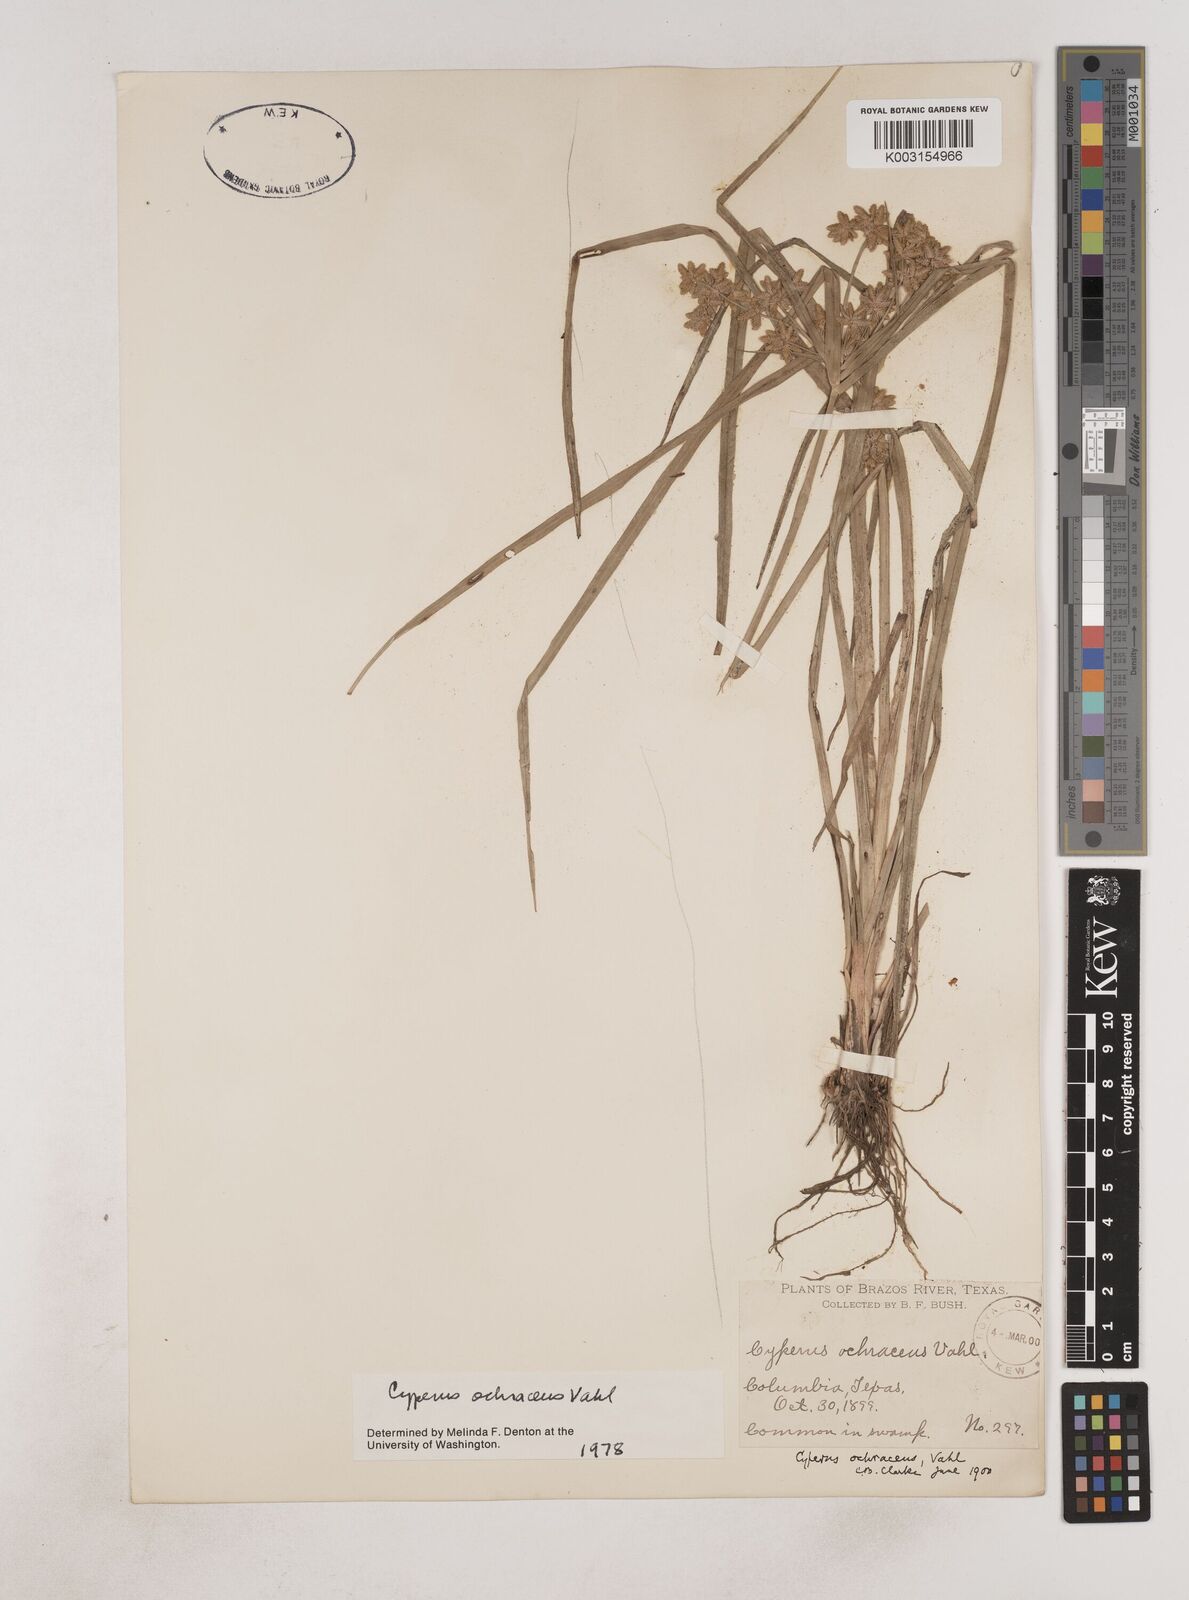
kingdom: Plantae
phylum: Tracheophyta
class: Liliopsida
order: Poales
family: Cyperaceae
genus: Cyperus
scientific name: Cyperus ochraceus
